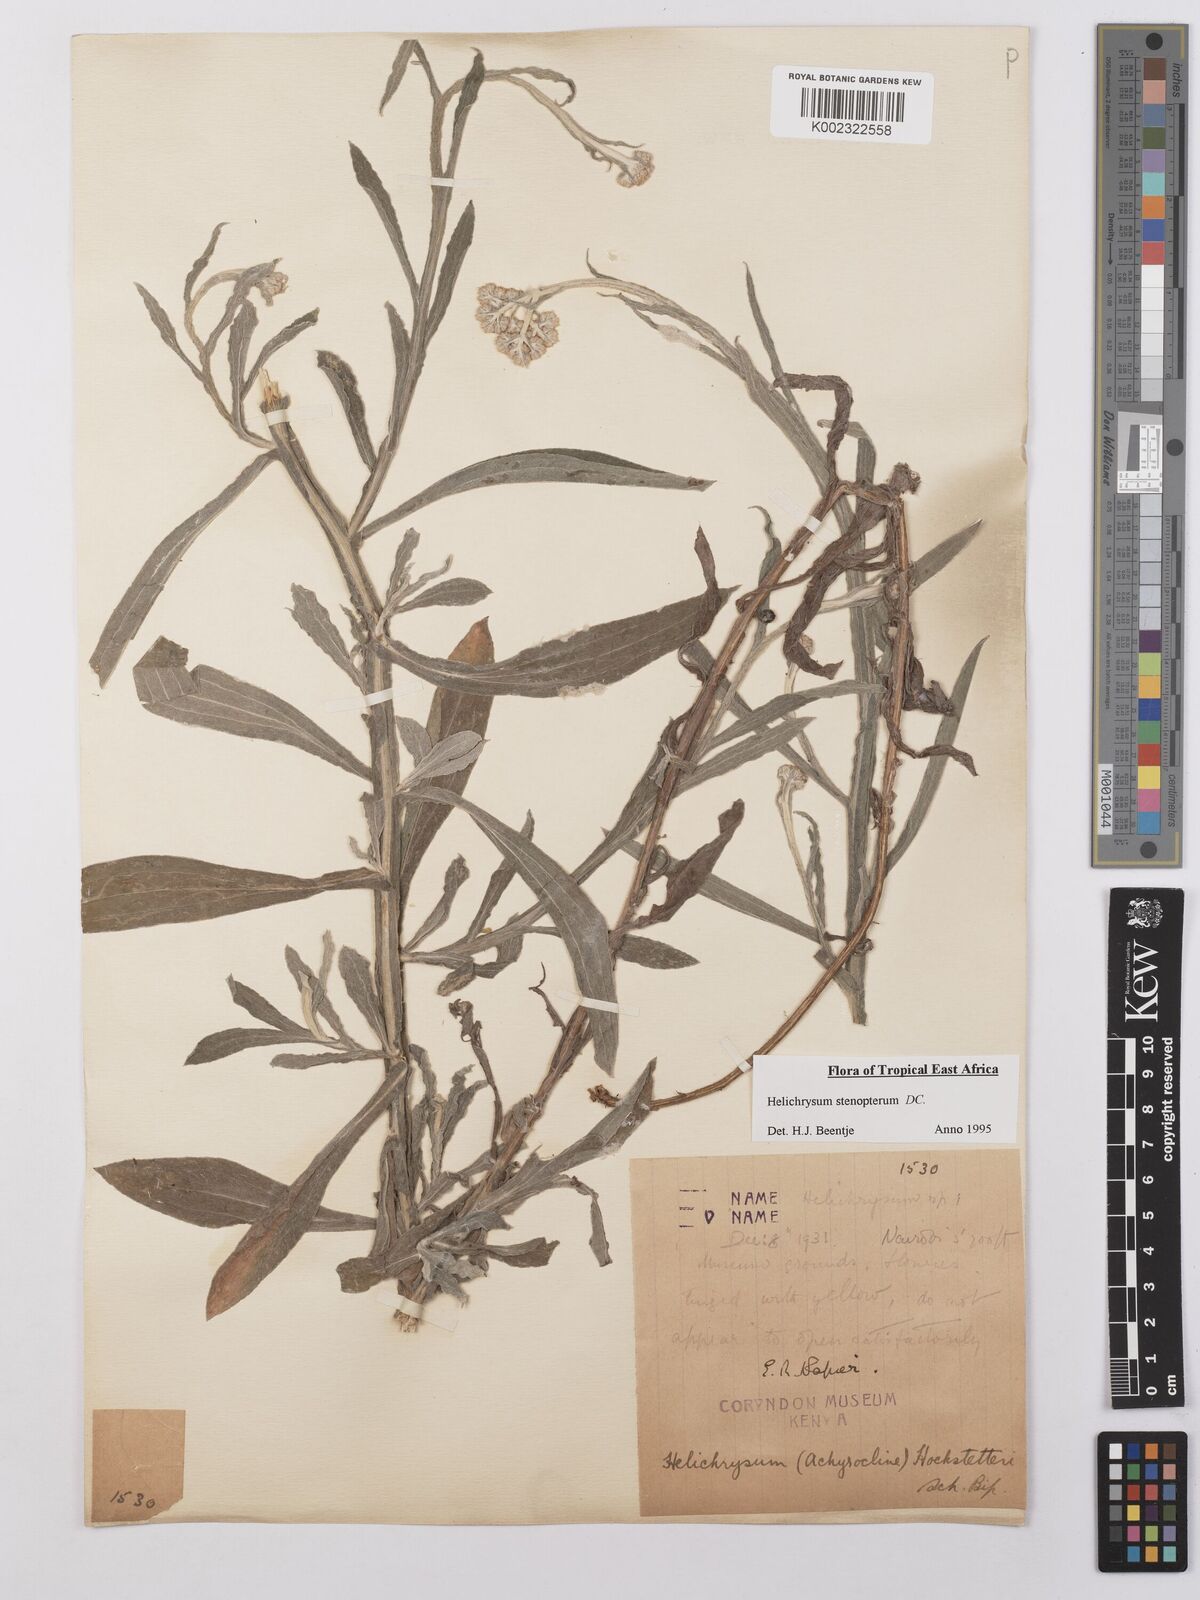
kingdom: Plantae
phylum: Tracheophyta
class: Magnoliopsida
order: Asterales
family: Asteraceae
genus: Helichrysum
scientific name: Helichrysum stenopterum
